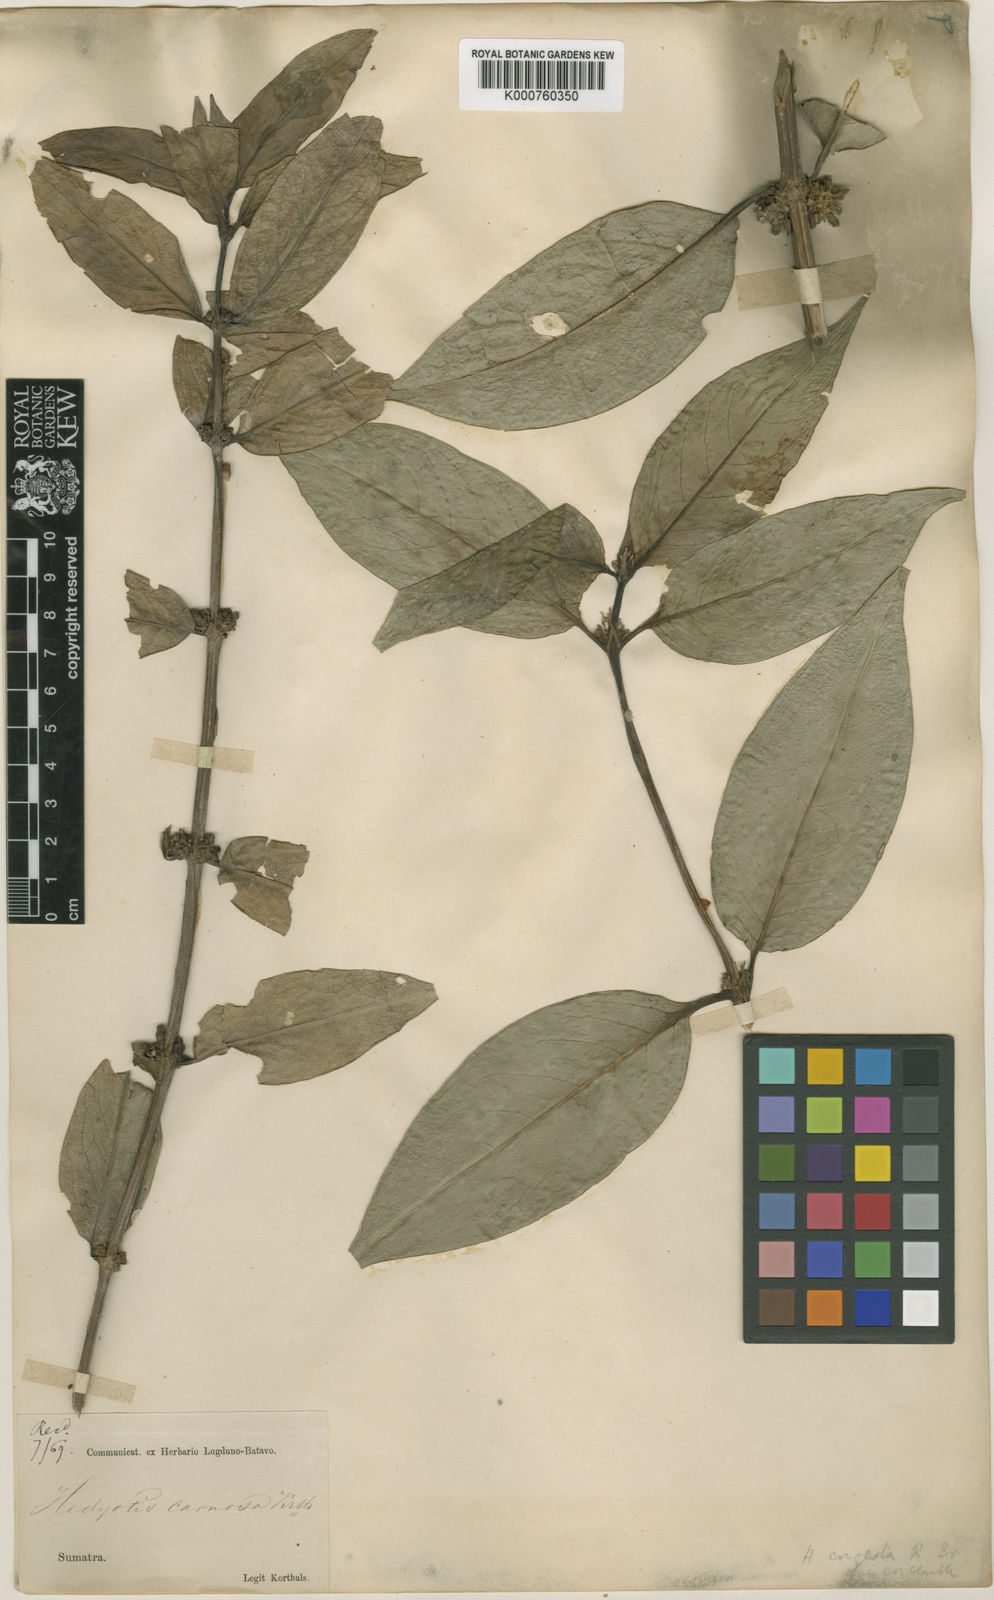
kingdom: Plantae
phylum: Tracheophyta
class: Magnoliopsida
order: Gentianales
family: Rubiaceae
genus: Hedyotis
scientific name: Hedyotis prostrata
